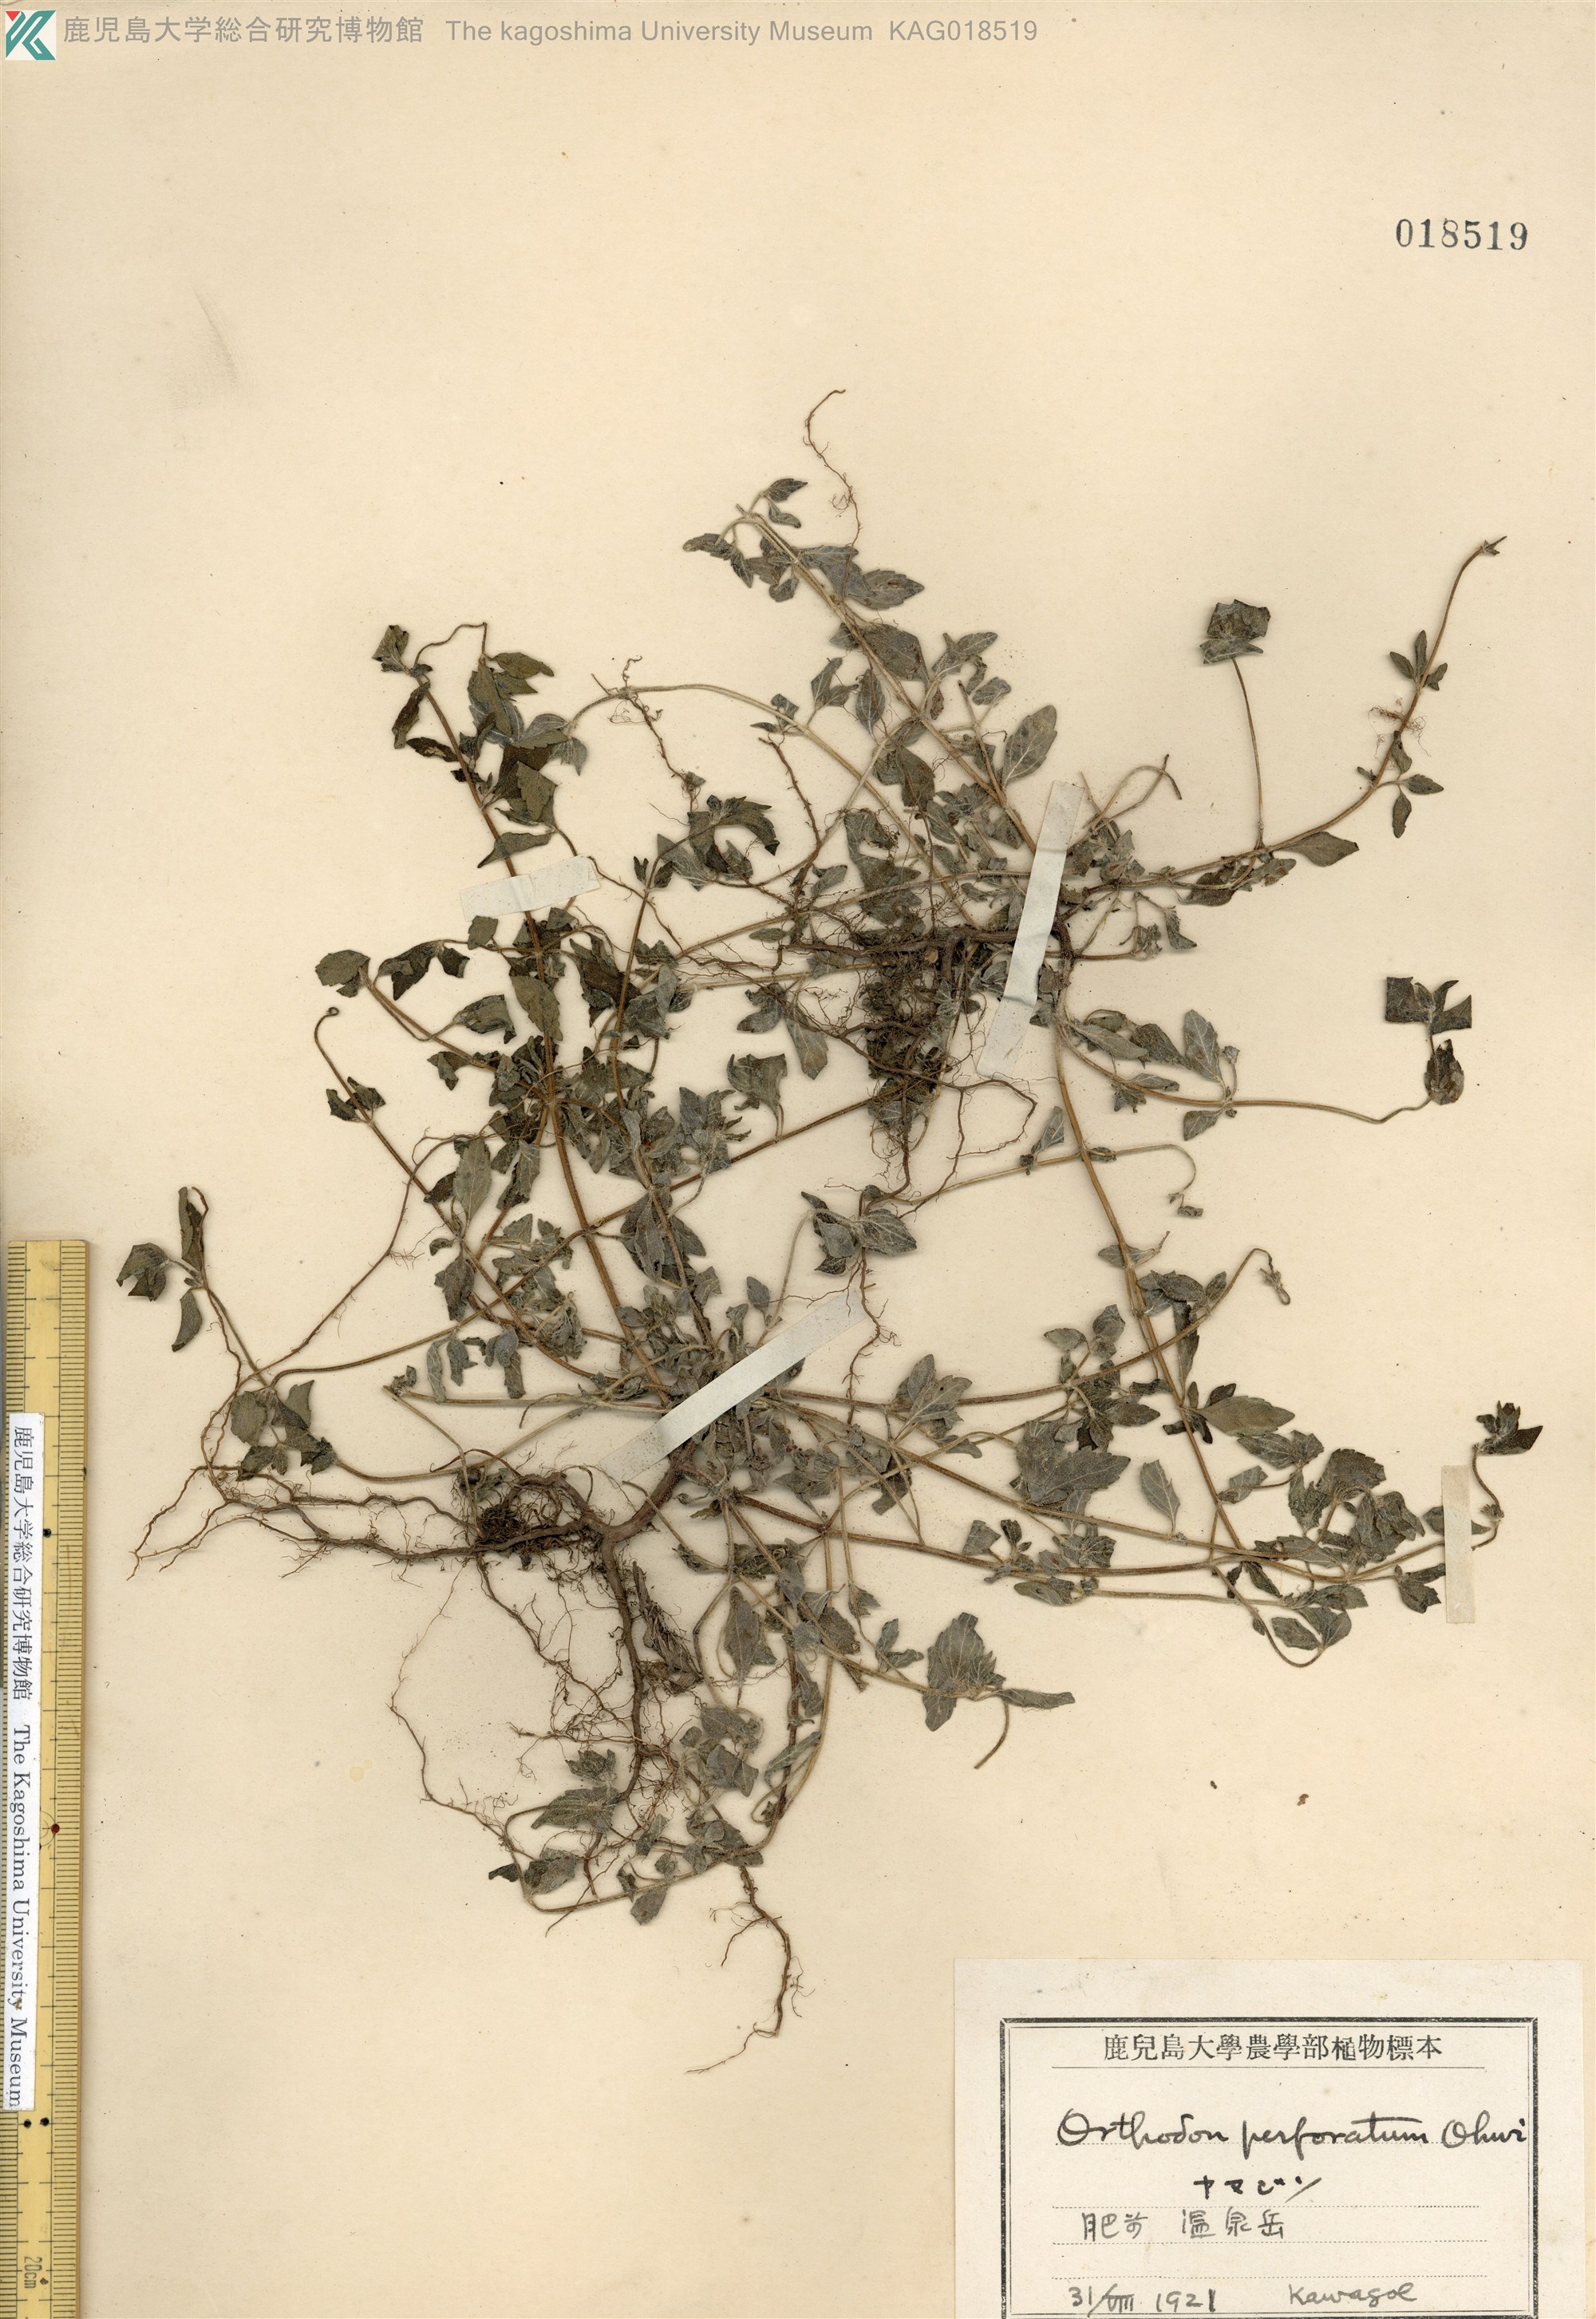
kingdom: Plantae
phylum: Tracheophyta
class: Magnoliopsida
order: Lamiales
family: Lamiaceae
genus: Mosla
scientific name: Mosla japonica
